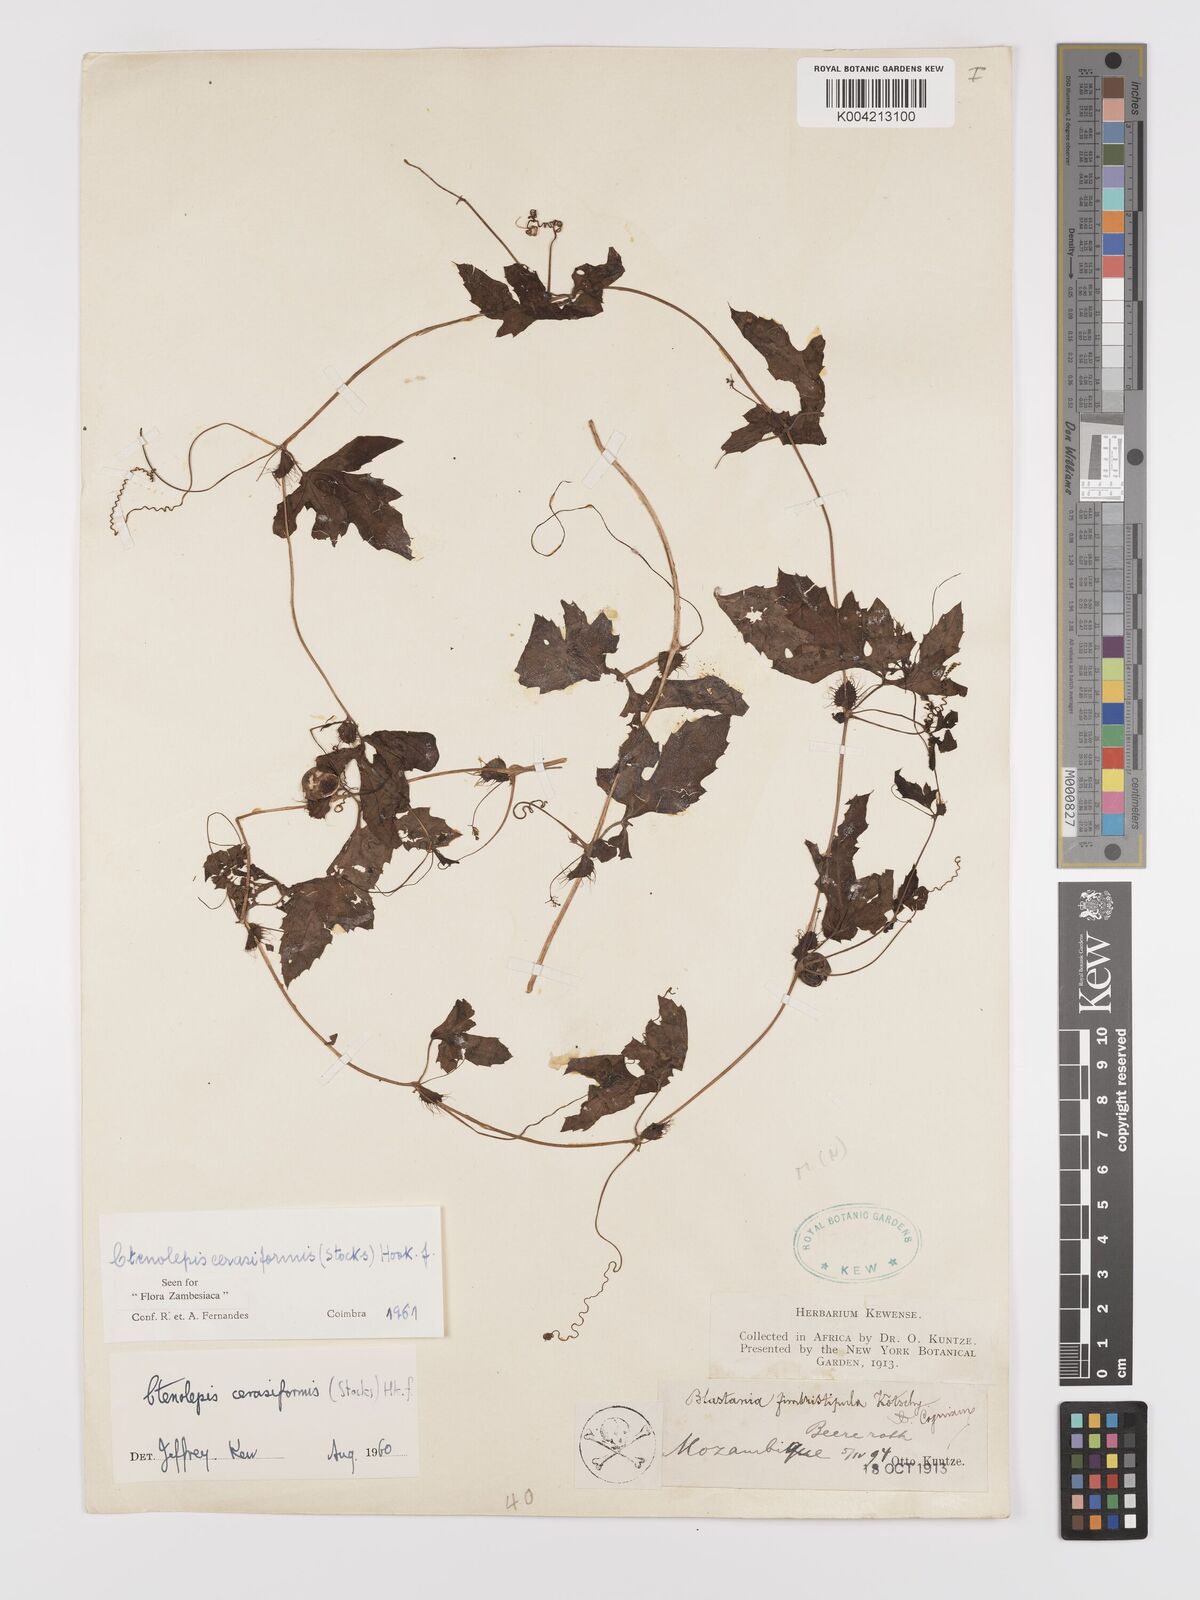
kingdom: Plantae
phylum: Tracheophyta
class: Magnoliopsida
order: Cucurbitales
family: Cucurbitaceae
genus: Blastania
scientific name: Blastania cerasiformis
